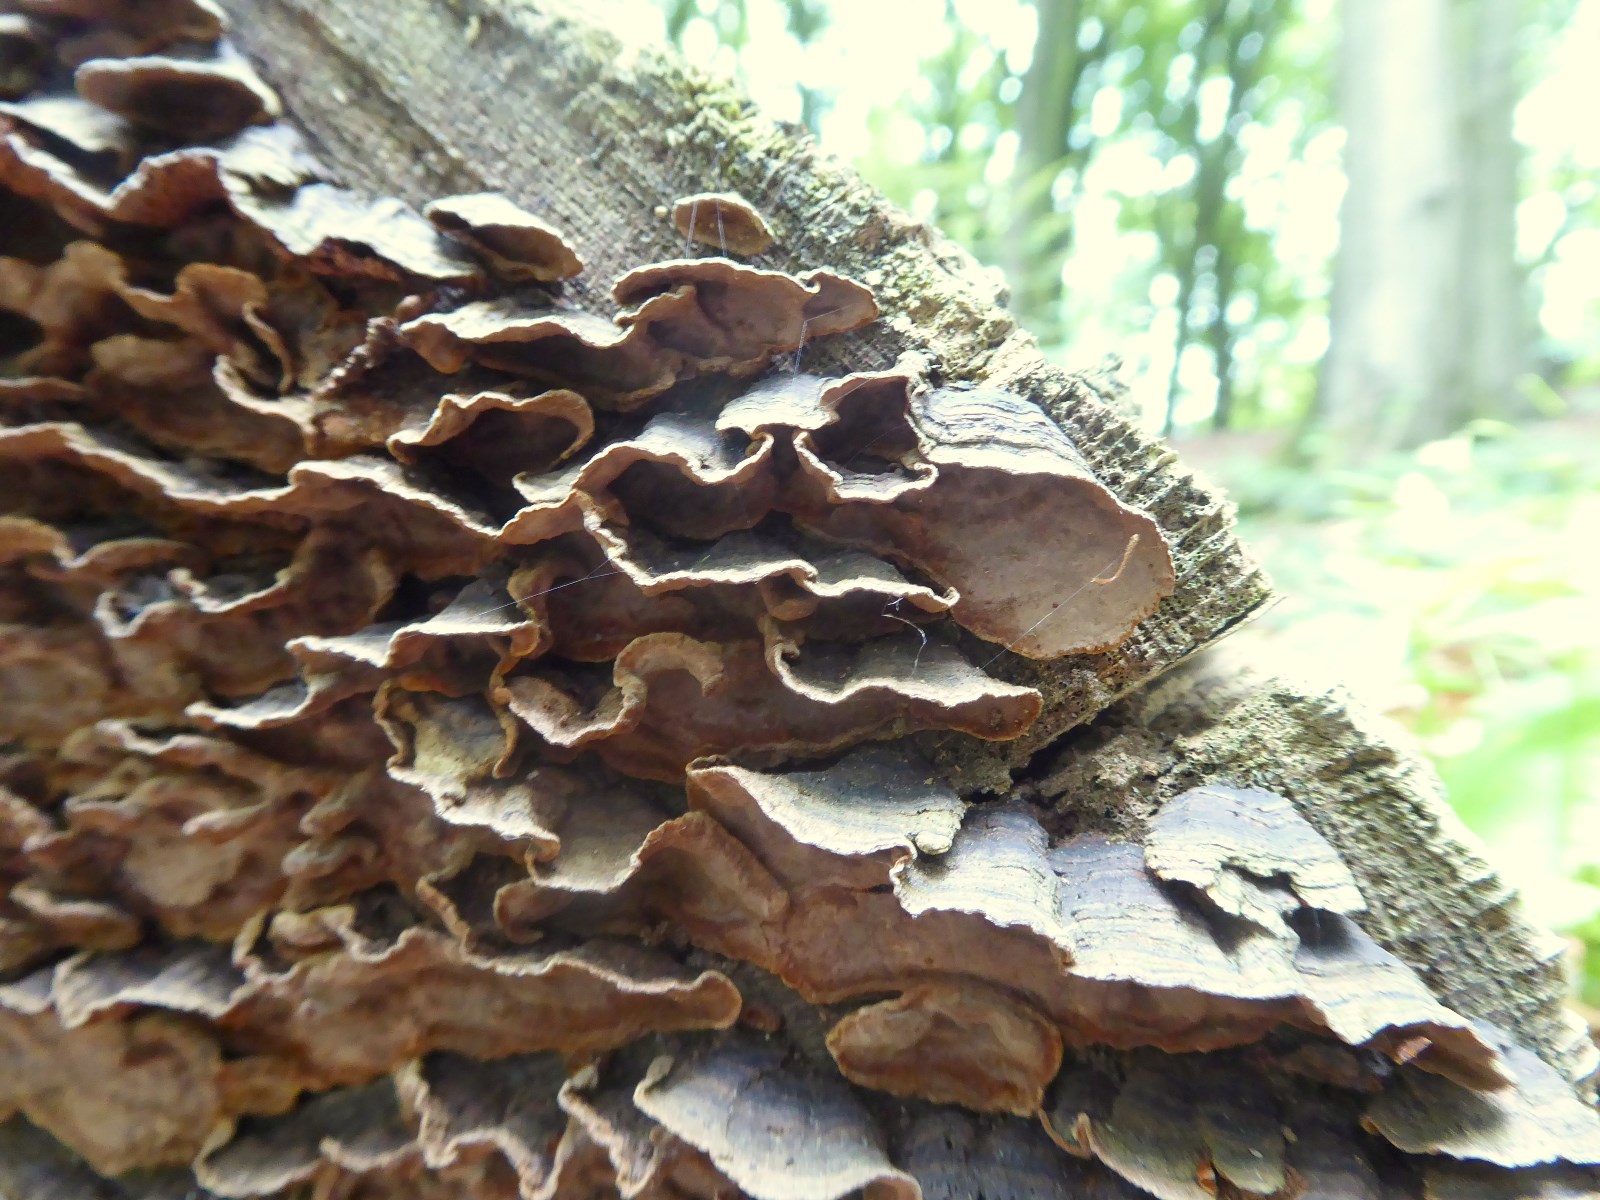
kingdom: Fungi
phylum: Basidiomycota
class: Agaricomycetes
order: Hymenochaetales
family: Hymenochaetaceae
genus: Hymenochaete
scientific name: Hymenochaete rubiginosa
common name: stiv ruslædersvamp
